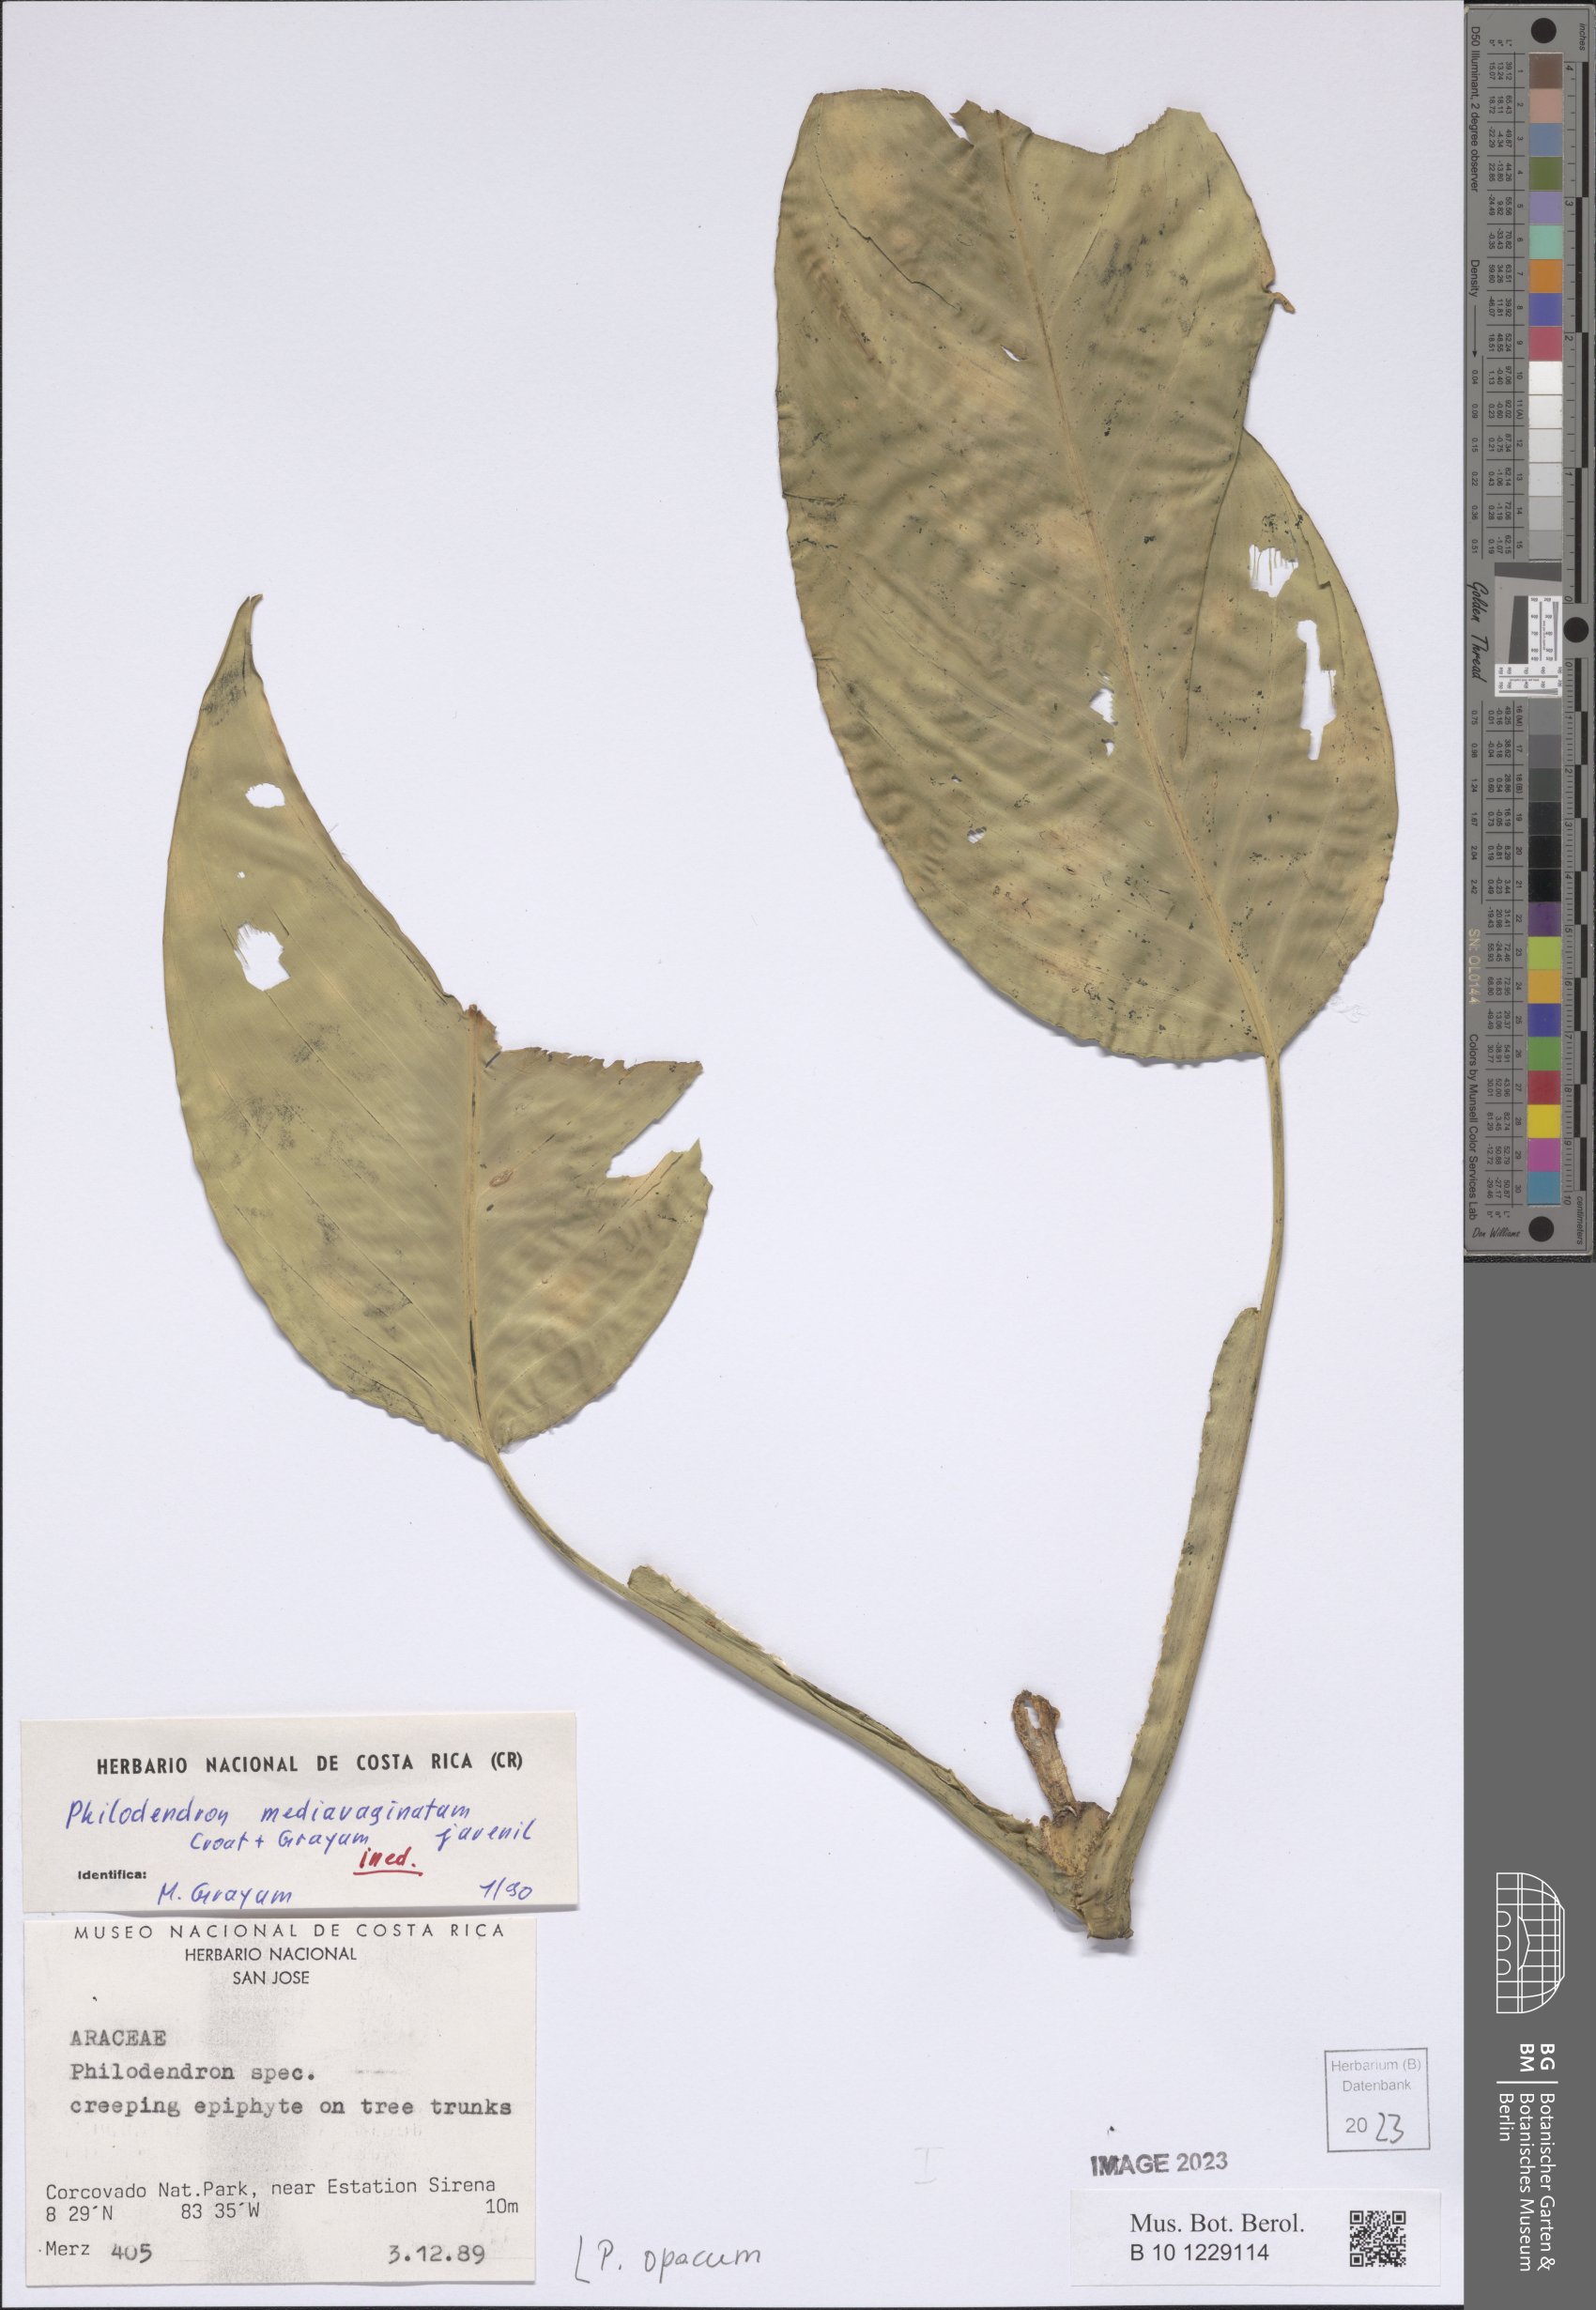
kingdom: Plantae
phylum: Tracheophyta
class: Liliopsida
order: Alismatales
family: Araceae
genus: Philodendron
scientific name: Philodendron opacum
